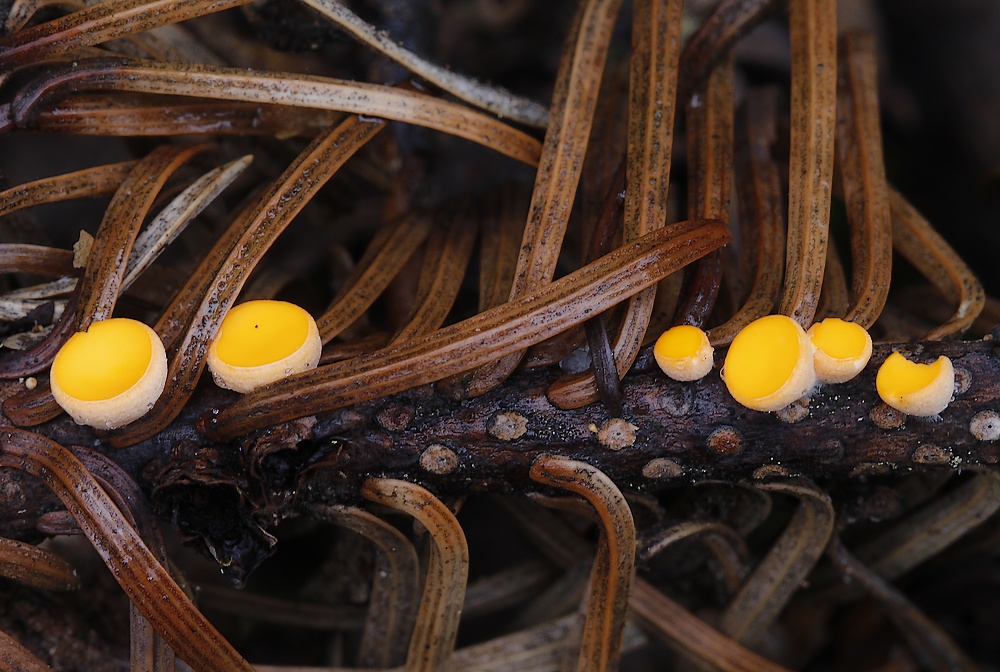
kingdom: Fungi
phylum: Ascomycota
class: Pezizomycetes
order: Pezizales
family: Sarcoscyphaceae
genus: Pithya
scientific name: Pithya vulgaris
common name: stor dukatbæger
